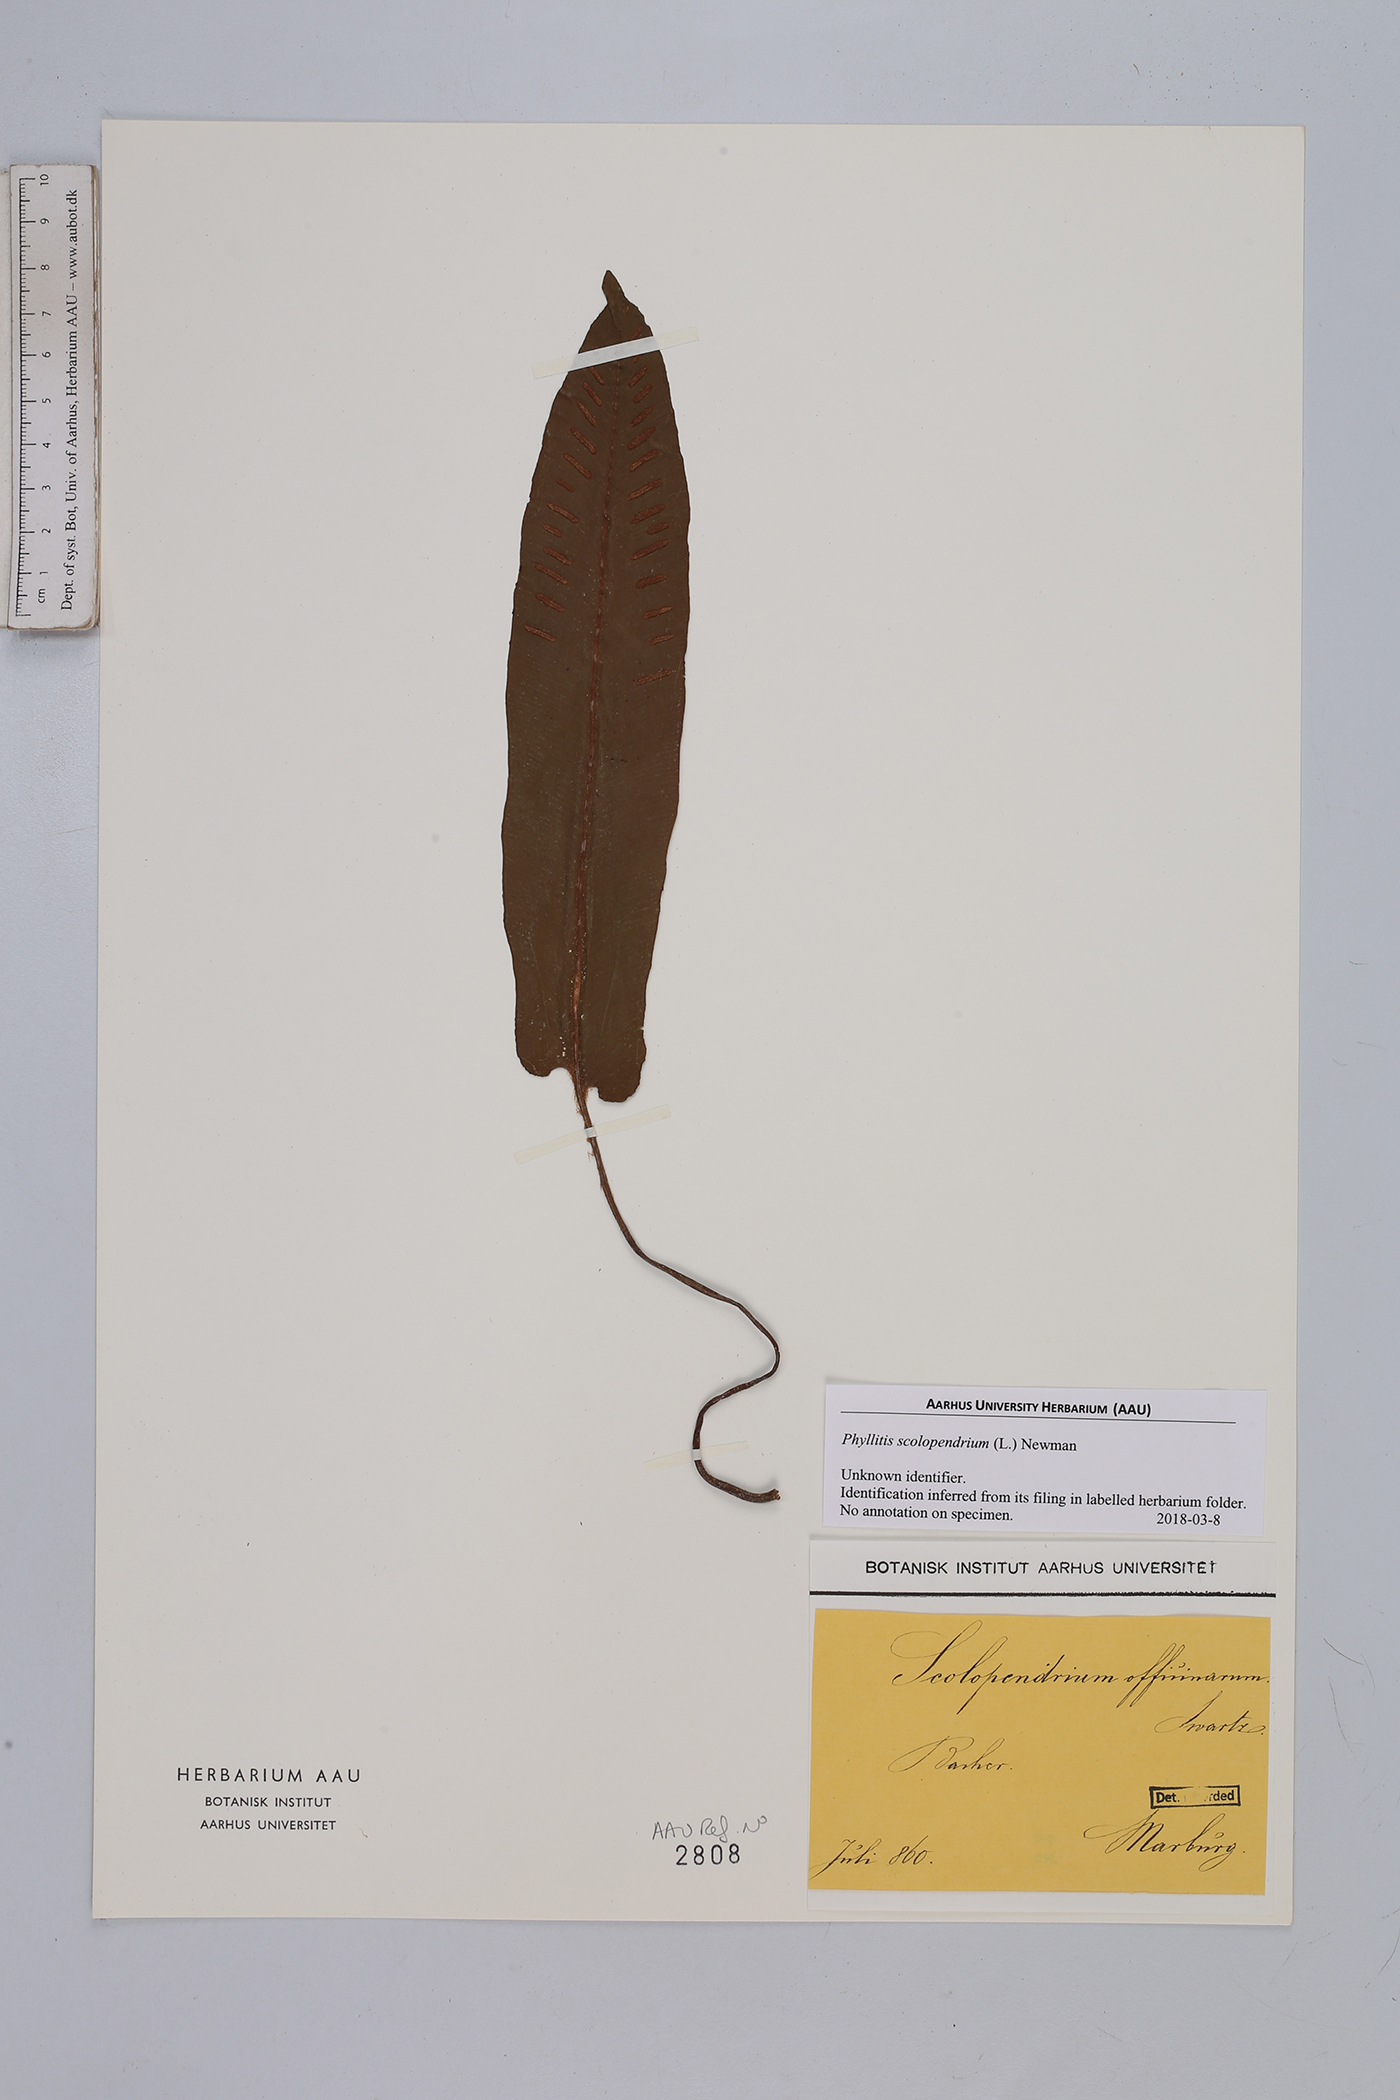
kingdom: Plantae
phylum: Tracheophyta
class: Polypodiopsida
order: Polypodiales
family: Aspleniaceae
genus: Asplenium
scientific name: Asplenium scolopendrium
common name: Hart's-tongue fern
